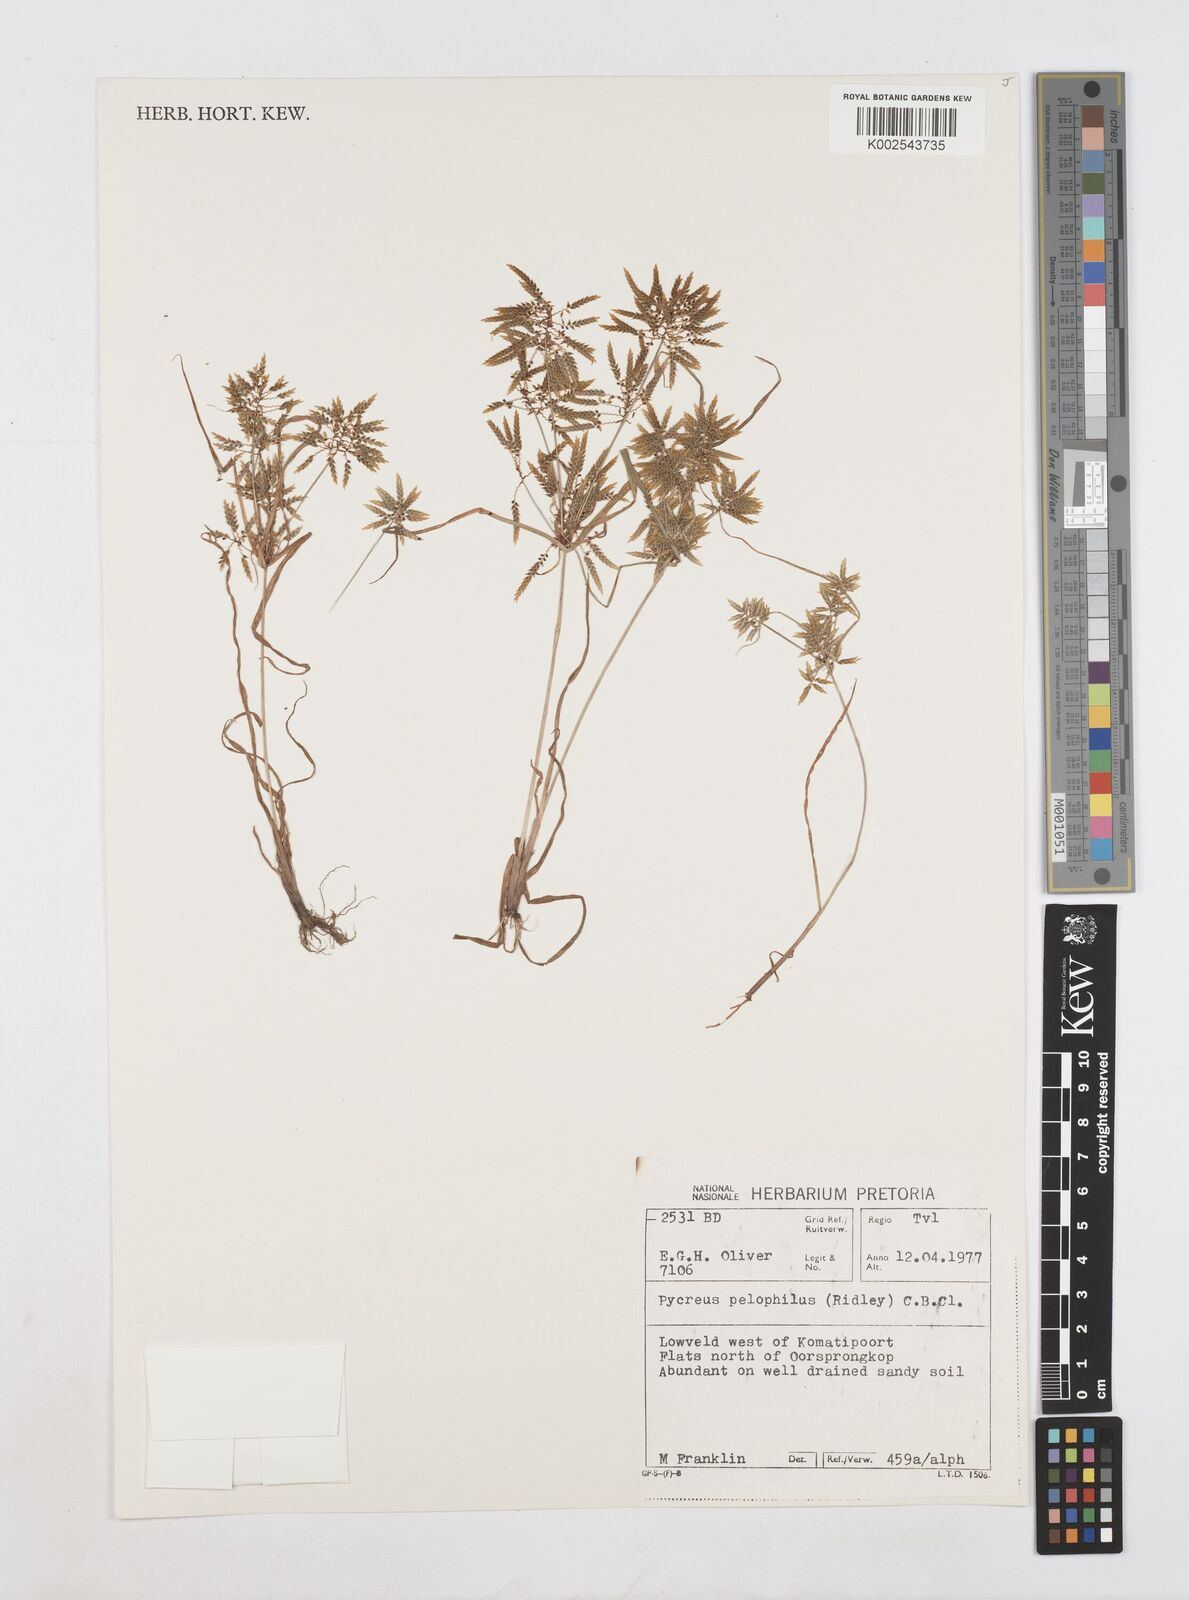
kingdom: Plantae
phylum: Tracheophyta
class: Liliopsida
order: Poales
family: Cyperaceae
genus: Cyperus
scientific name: Cyperus pelophilus
